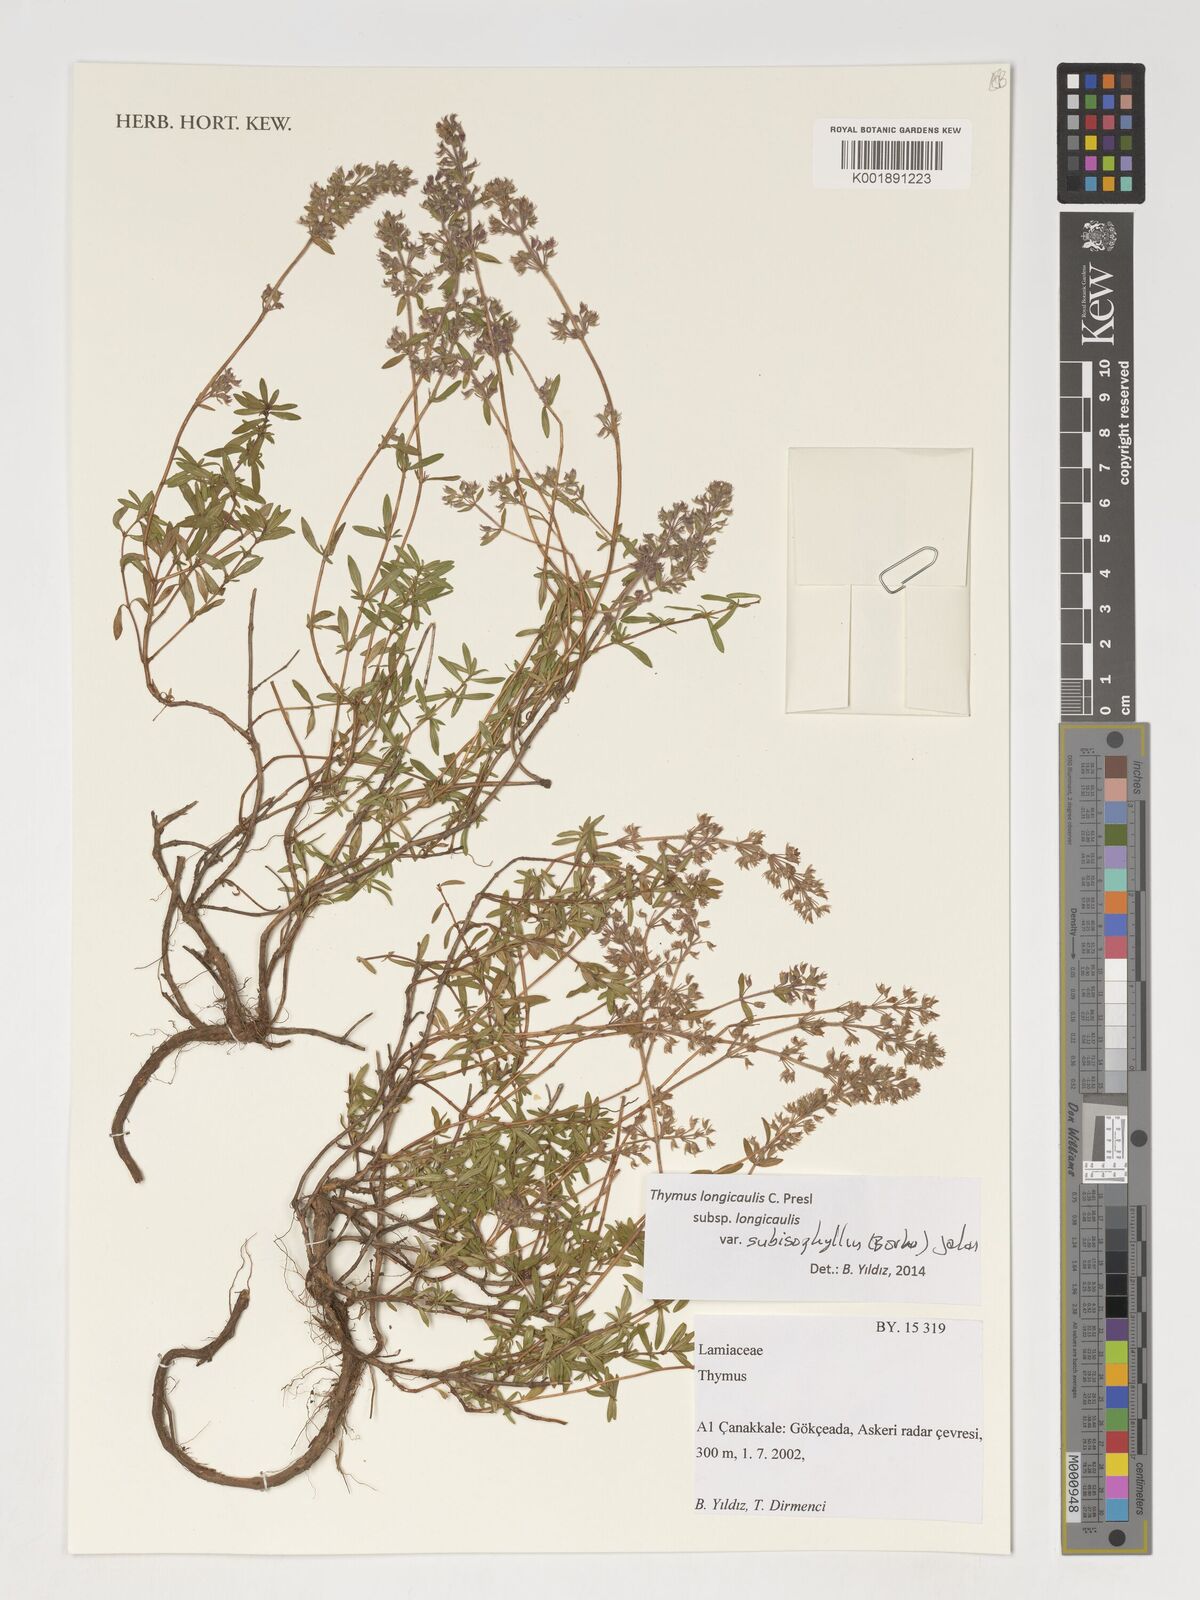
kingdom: Plantae
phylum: Tracheophyta
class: Magnoliopsida
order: Lamiales
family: Lamiaceae
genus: Thymus
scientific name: Thymus
